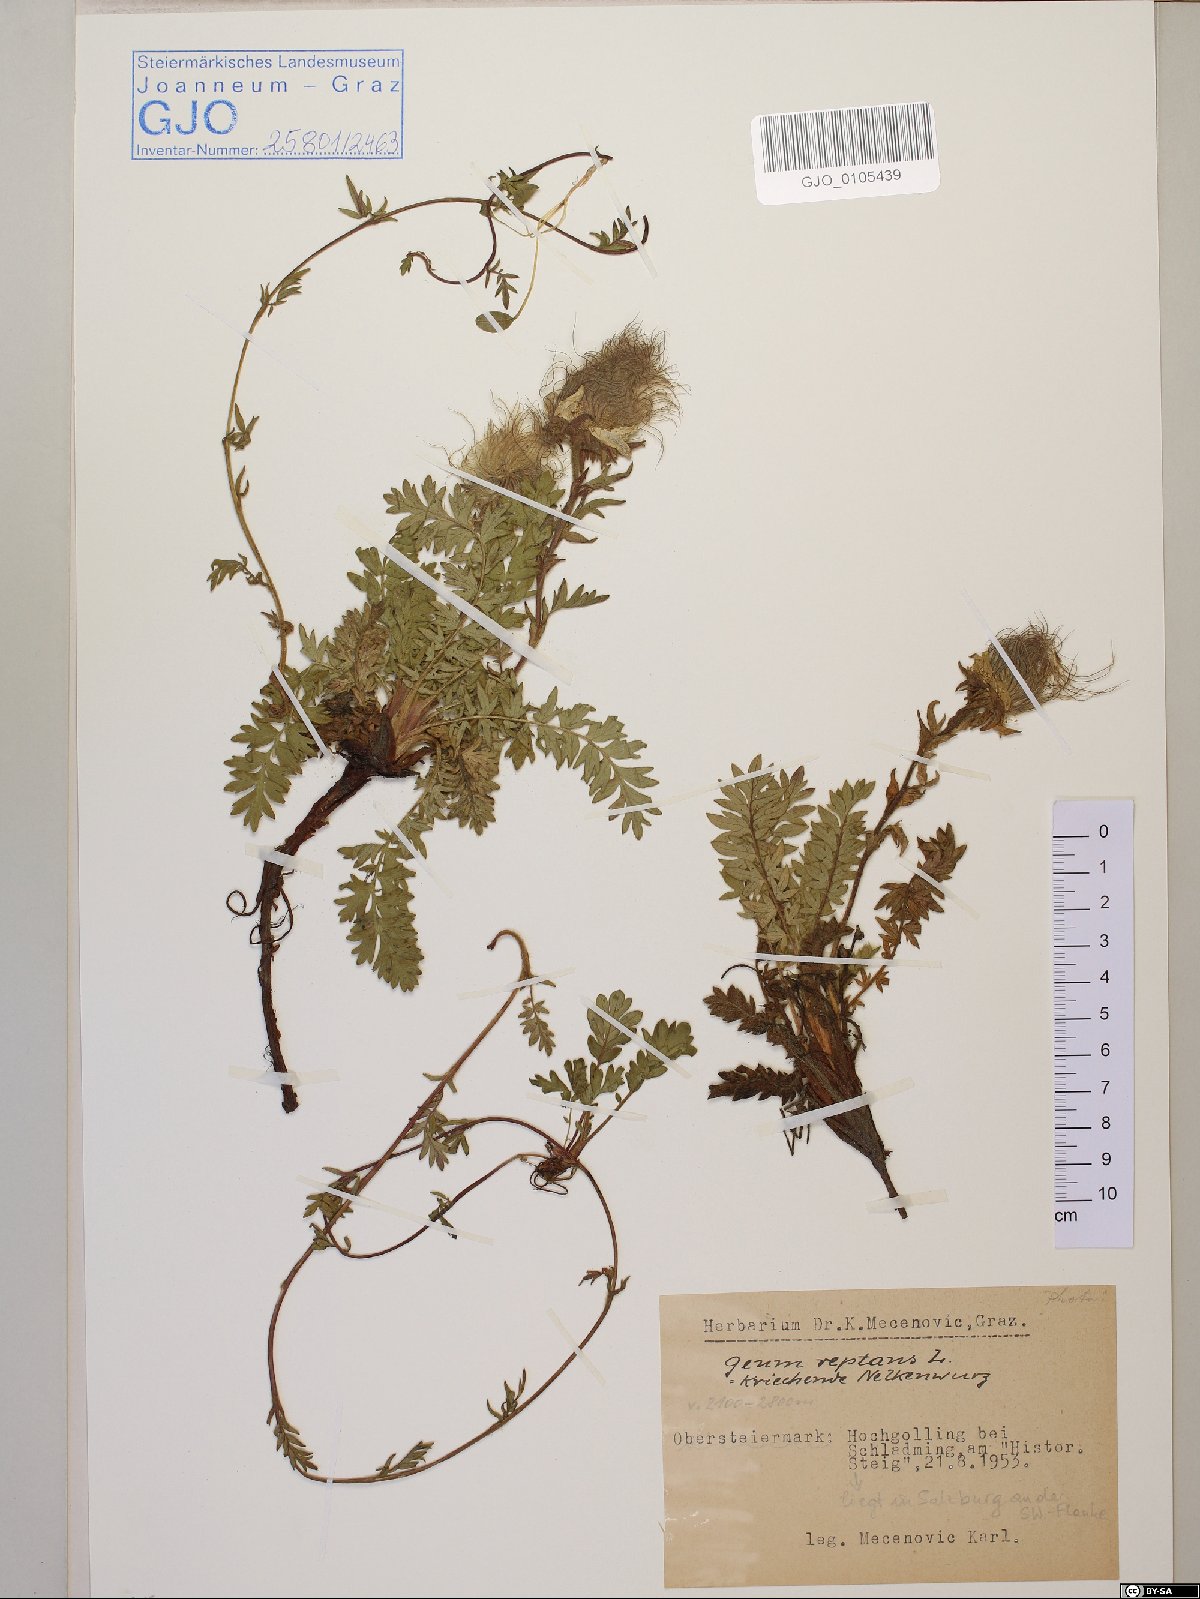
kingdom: Plantae
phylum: Tracheophyta
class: Magnoliopsida
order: Rosales
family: Rosaceae
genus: Geum
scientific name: Geum reptans
